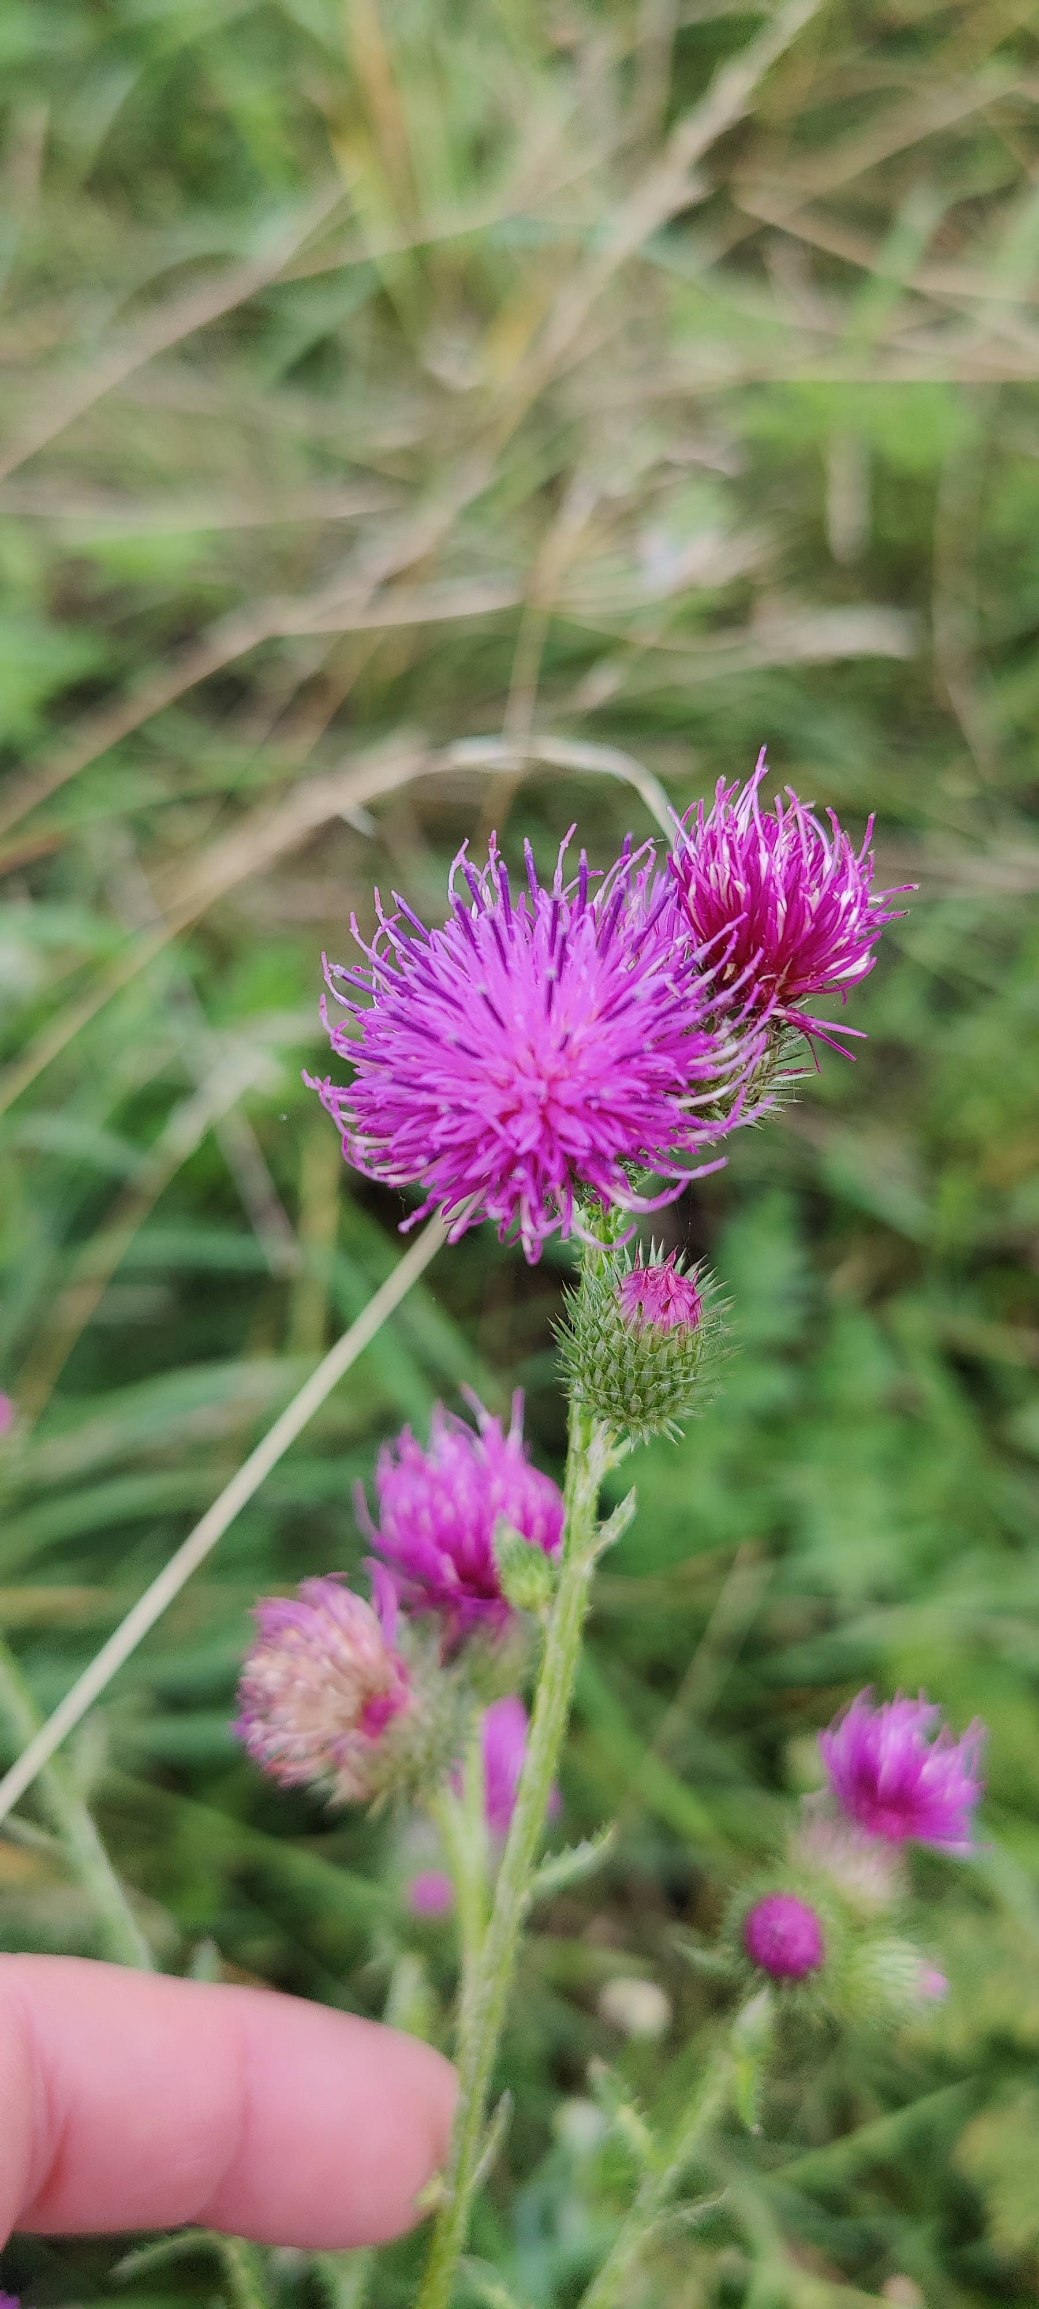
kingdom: Plantae
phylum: Tracheophyta
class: Magnoliopsida
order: Asterales
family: Asteraceae
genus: Carduus
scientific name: Carduus crispus
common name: Kruset tidsel
